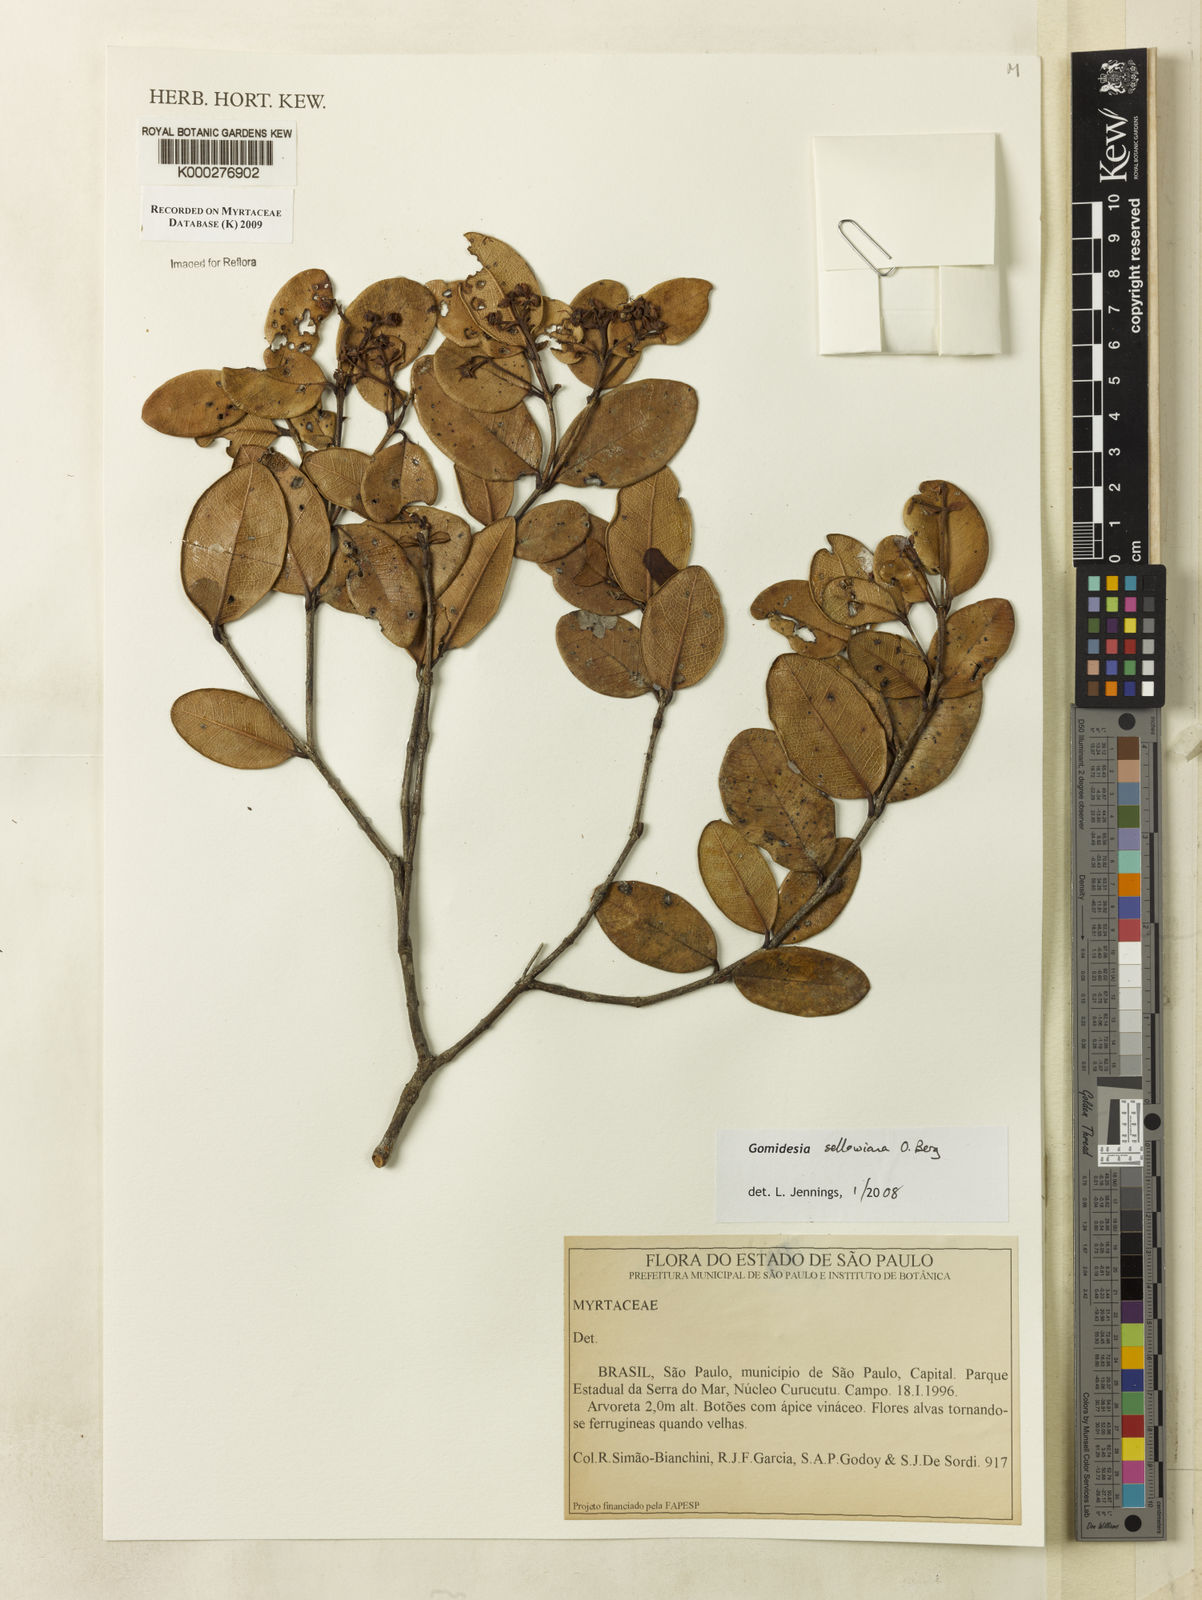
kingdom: Plantae
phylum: Tracheophyta
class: Magnoliopsida
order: Myrtales
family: Myrtaceae
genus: Myrcia
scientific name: Myrcia hartwegiana
